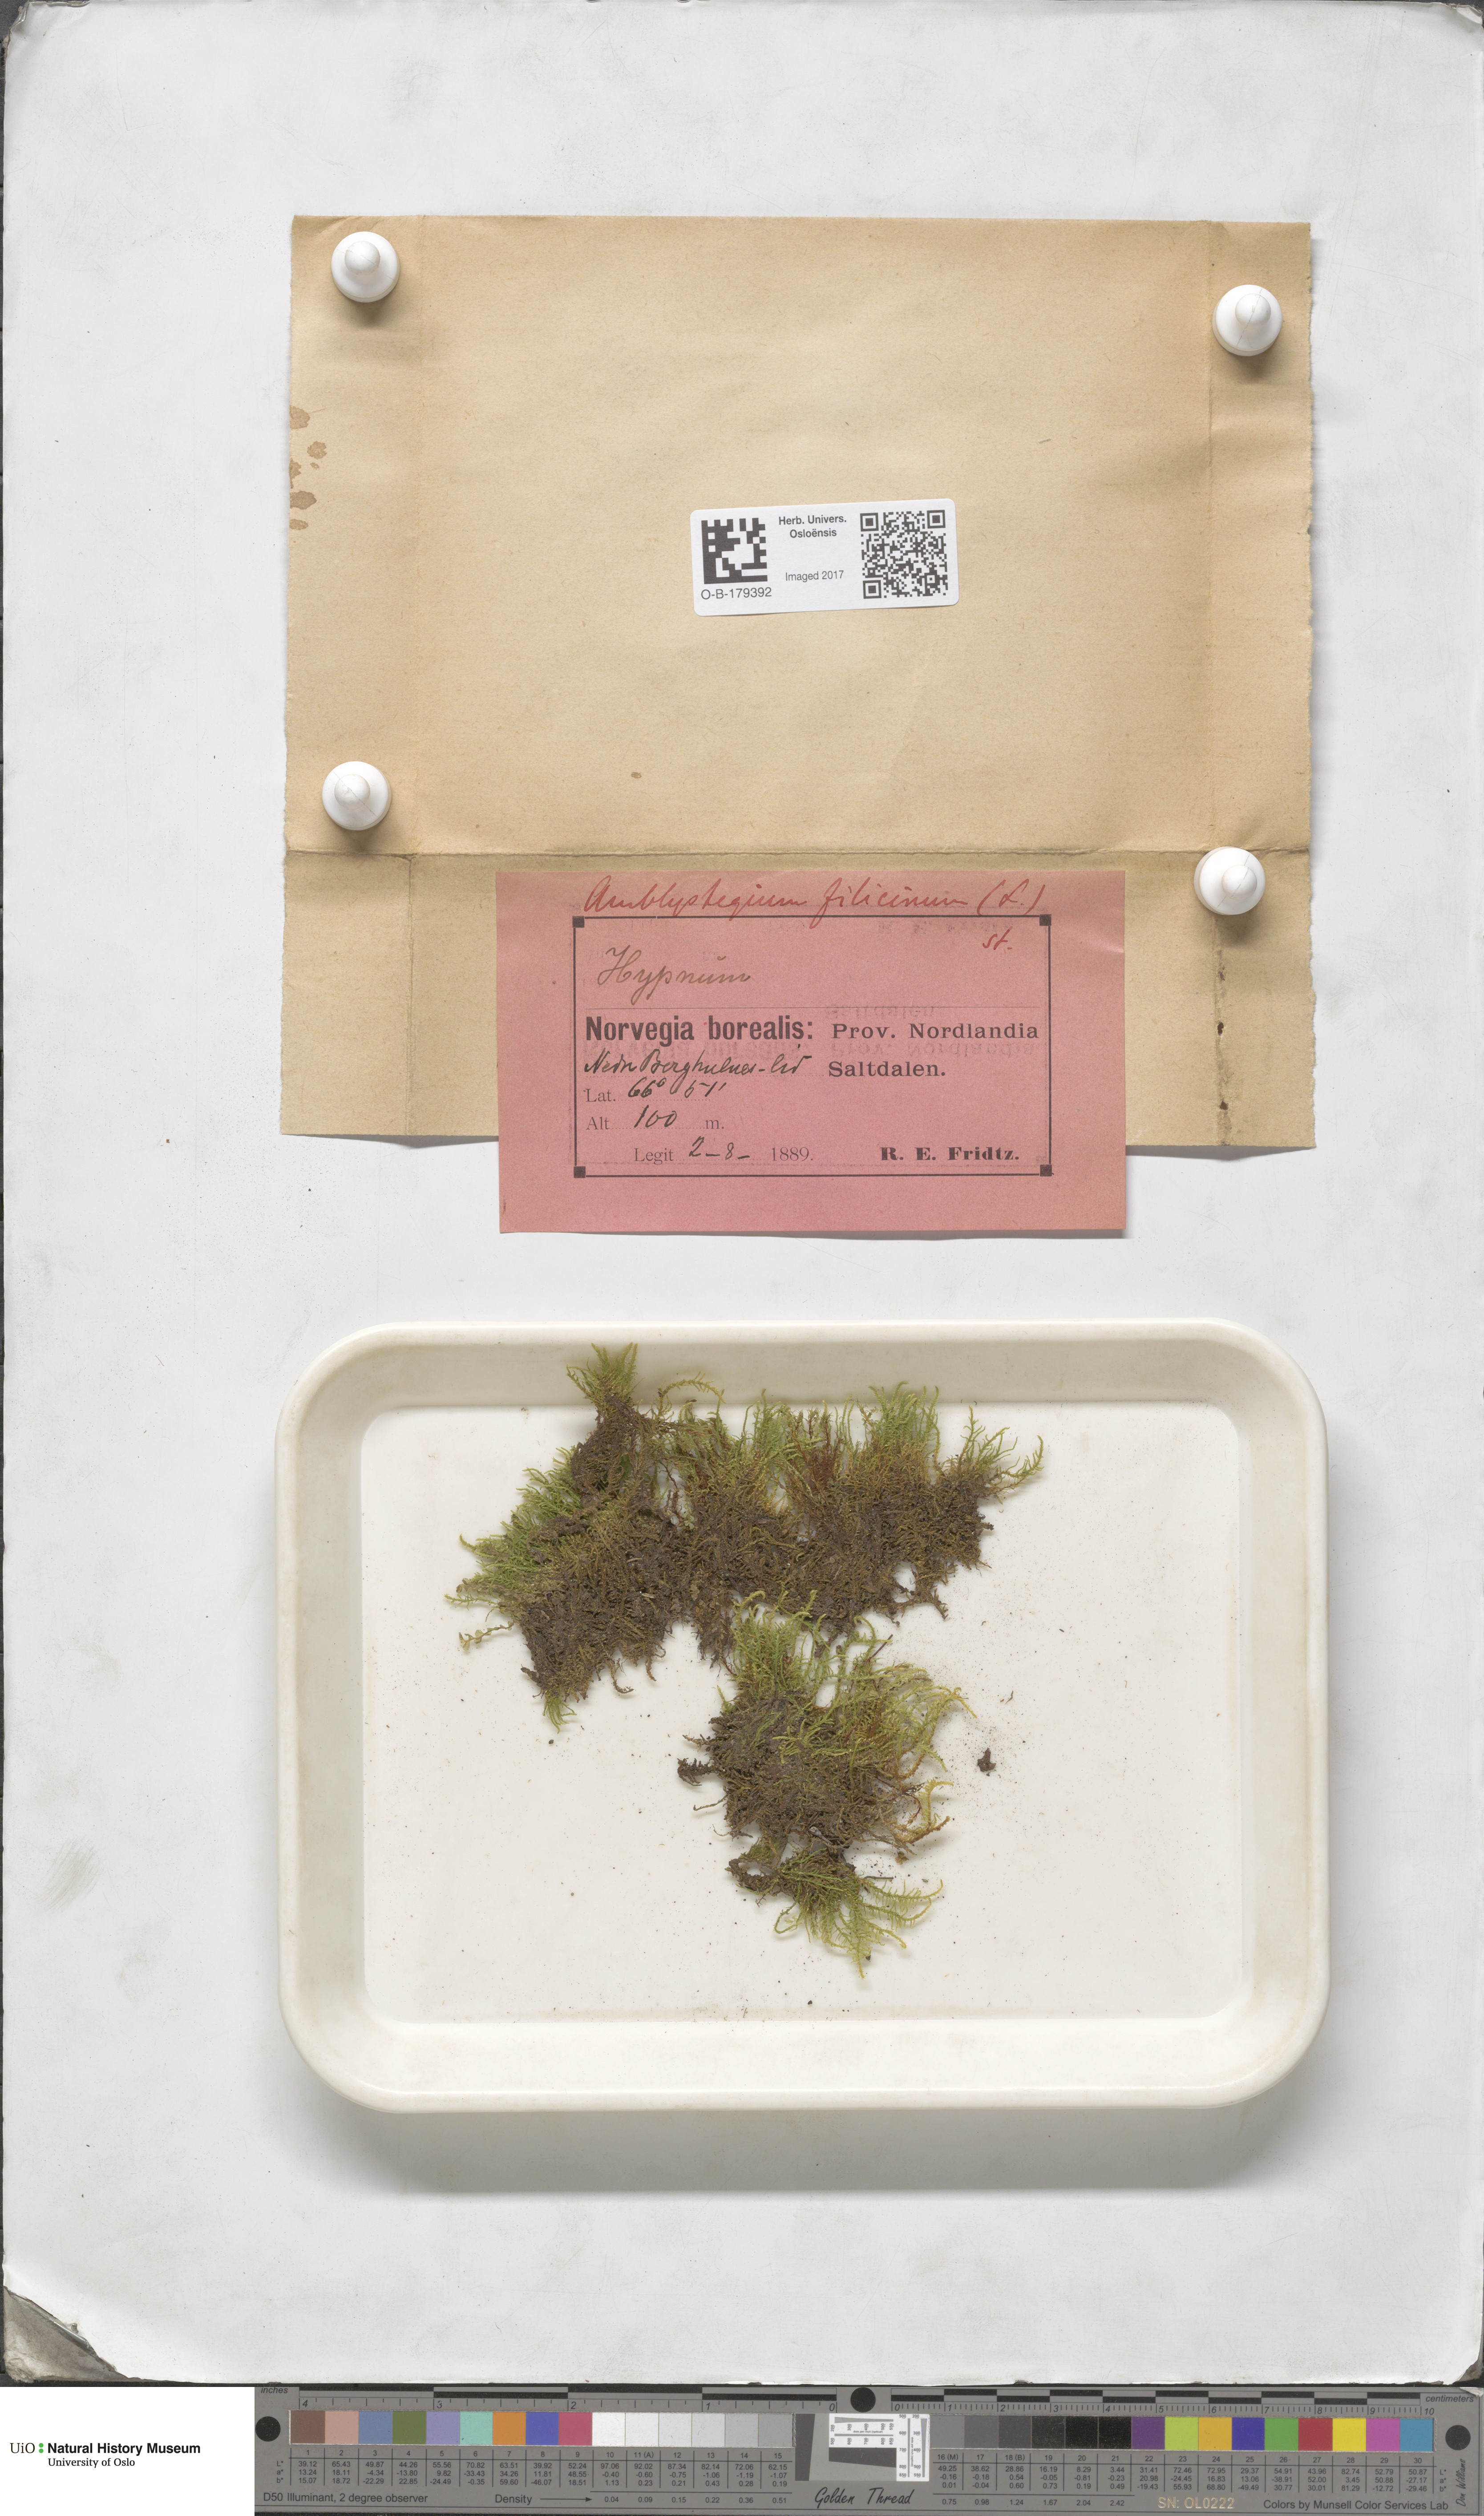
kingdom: Plantae
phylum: Bryophyta
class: Bryopsida
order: Hypnales
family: Amblystegiaceae
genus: Cratoneuron
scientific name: Cratoneuron filicinum
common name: Fern-leaved hook moss
